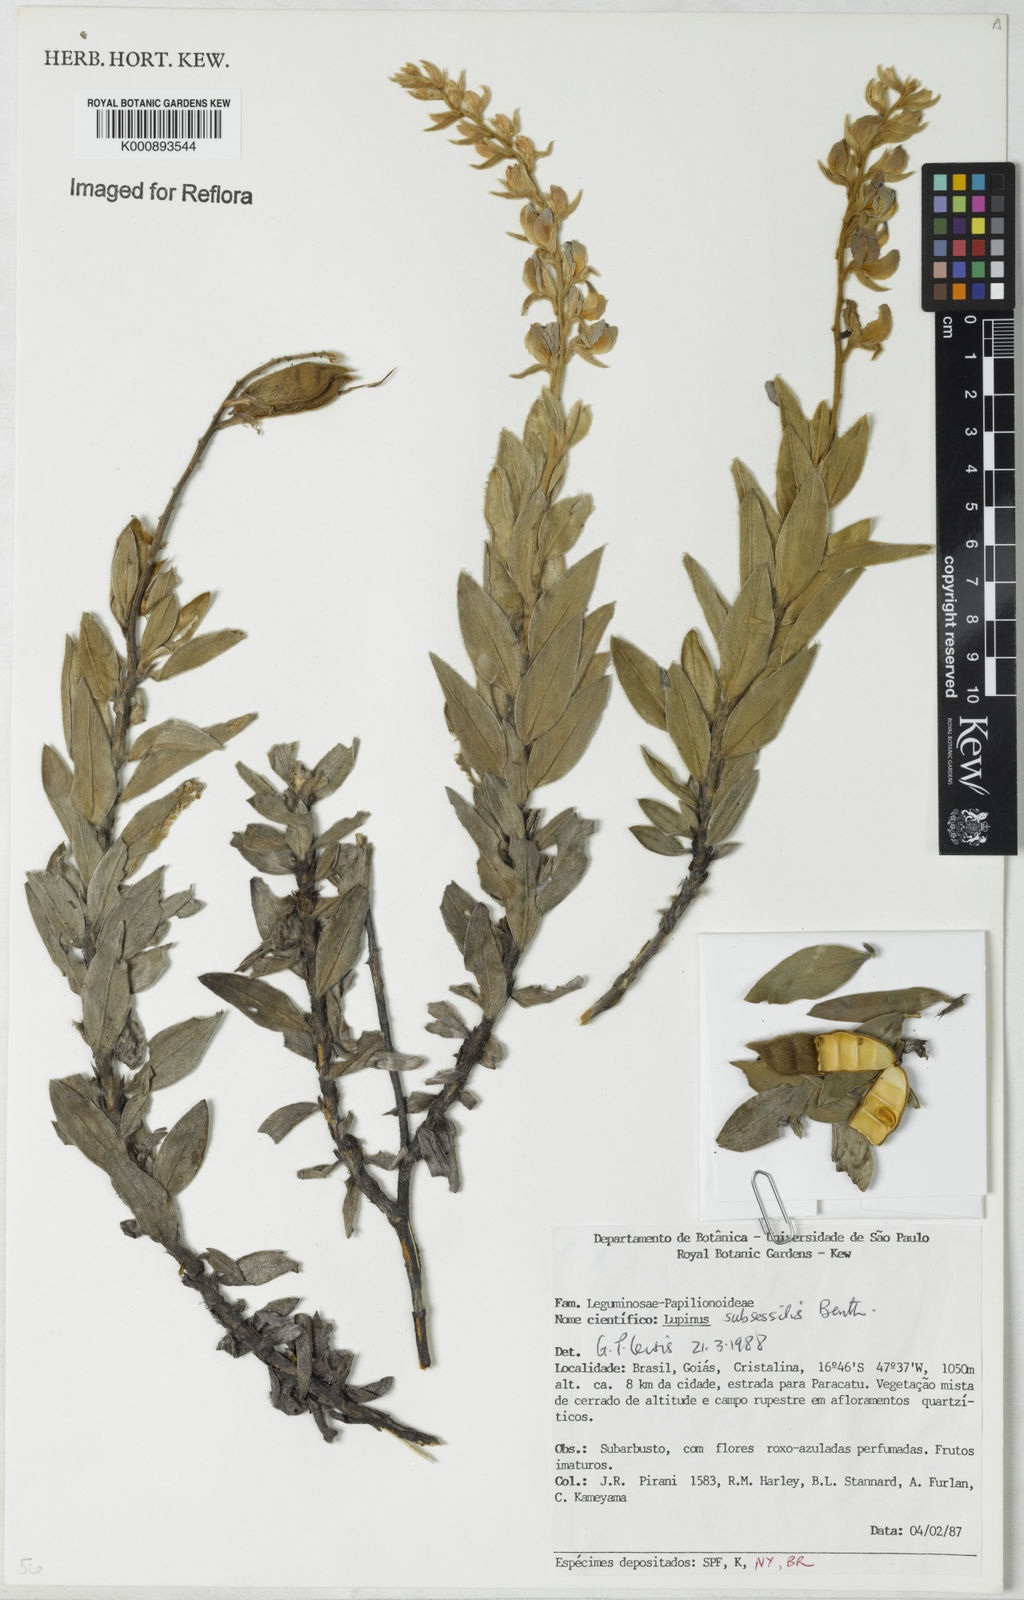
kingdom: Plantae
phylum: Tracheophyta
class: Magnoliopsida
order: Fabales
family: Fabaceae
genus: Lupinus
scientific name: Lupinus subsessilis
